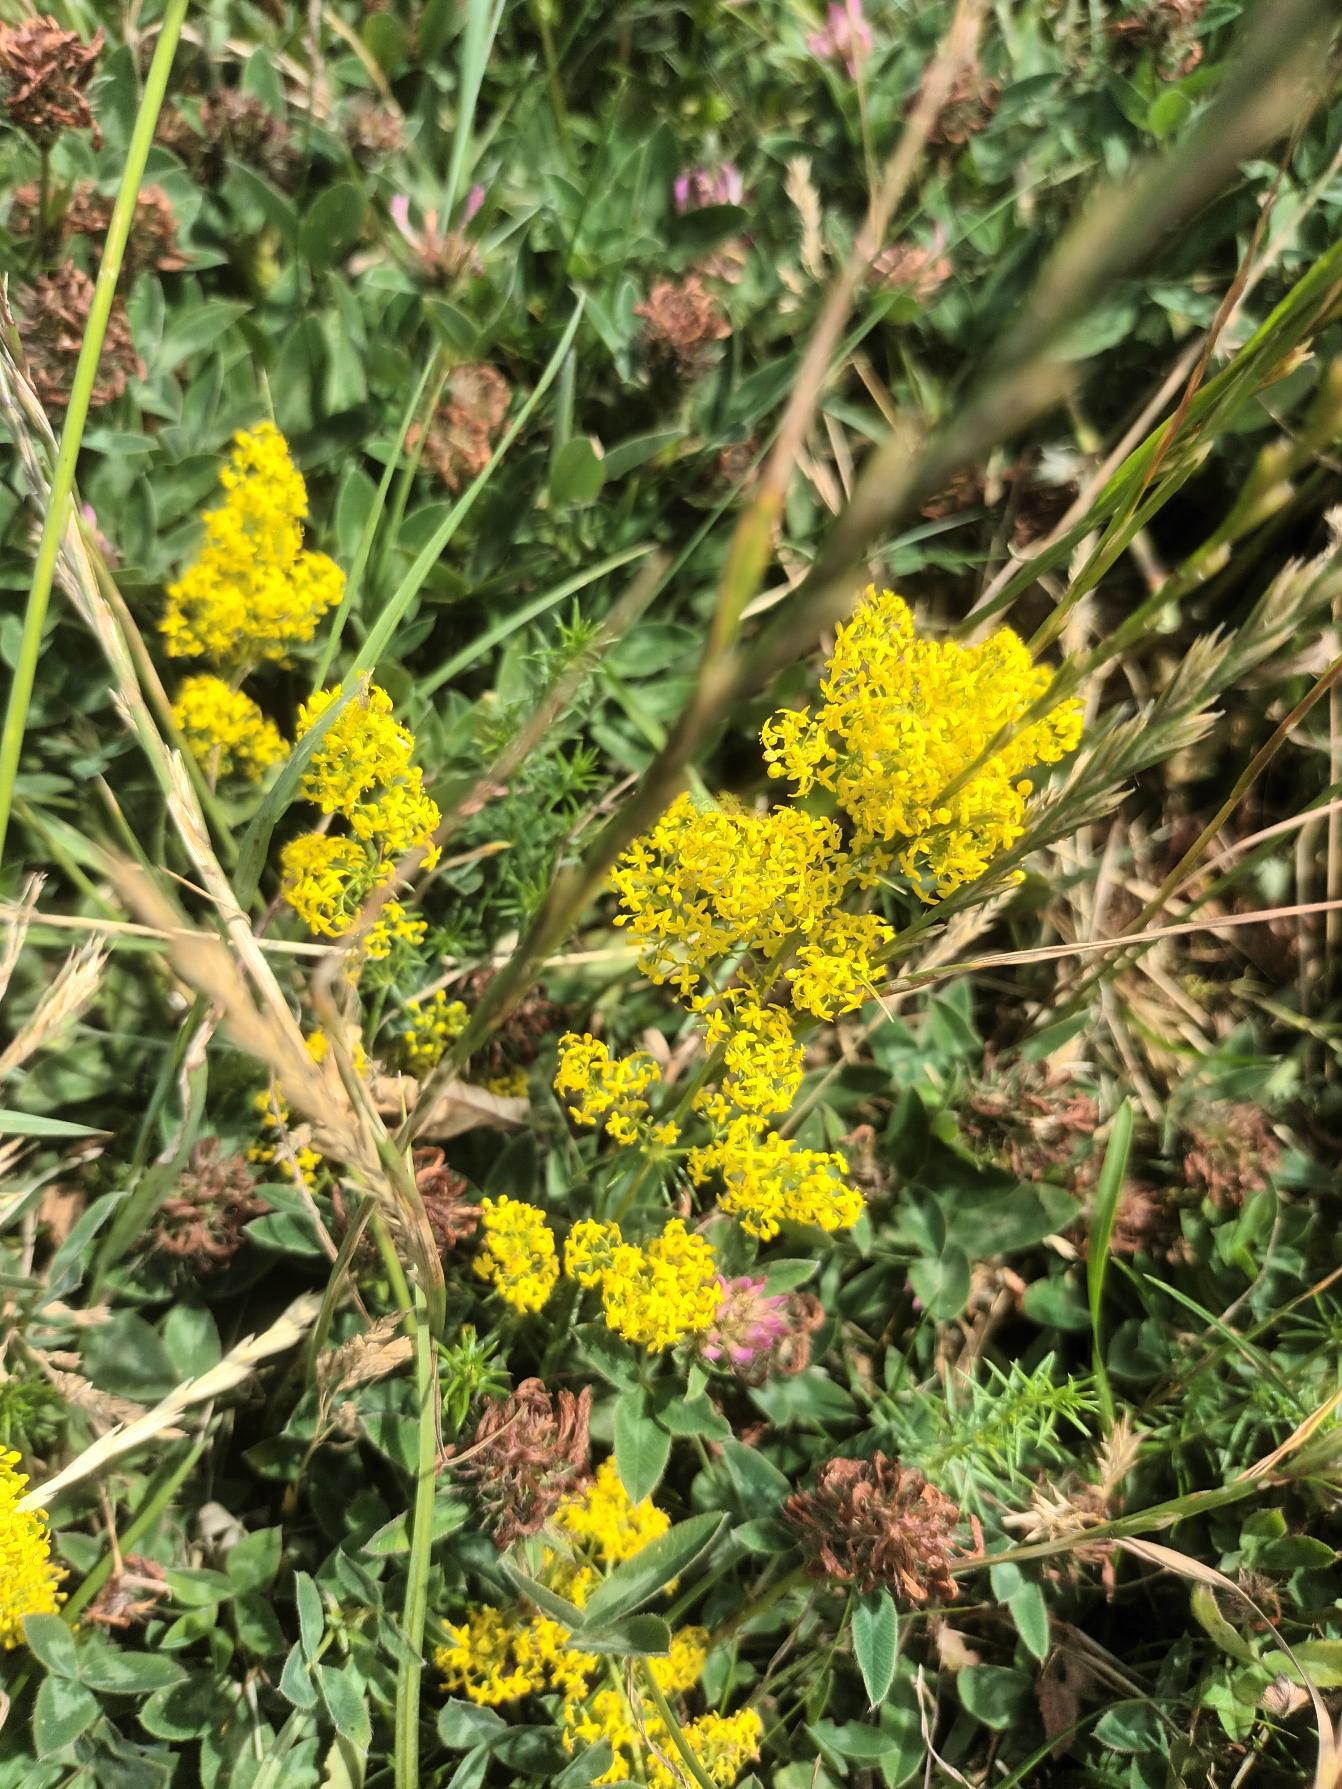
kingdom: Plantae
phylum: Tracheophyta
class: Magnoliopsida
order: Gentianales
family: Rubiaceae
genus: Galium
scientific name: Galium verum
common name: Gul snerre
